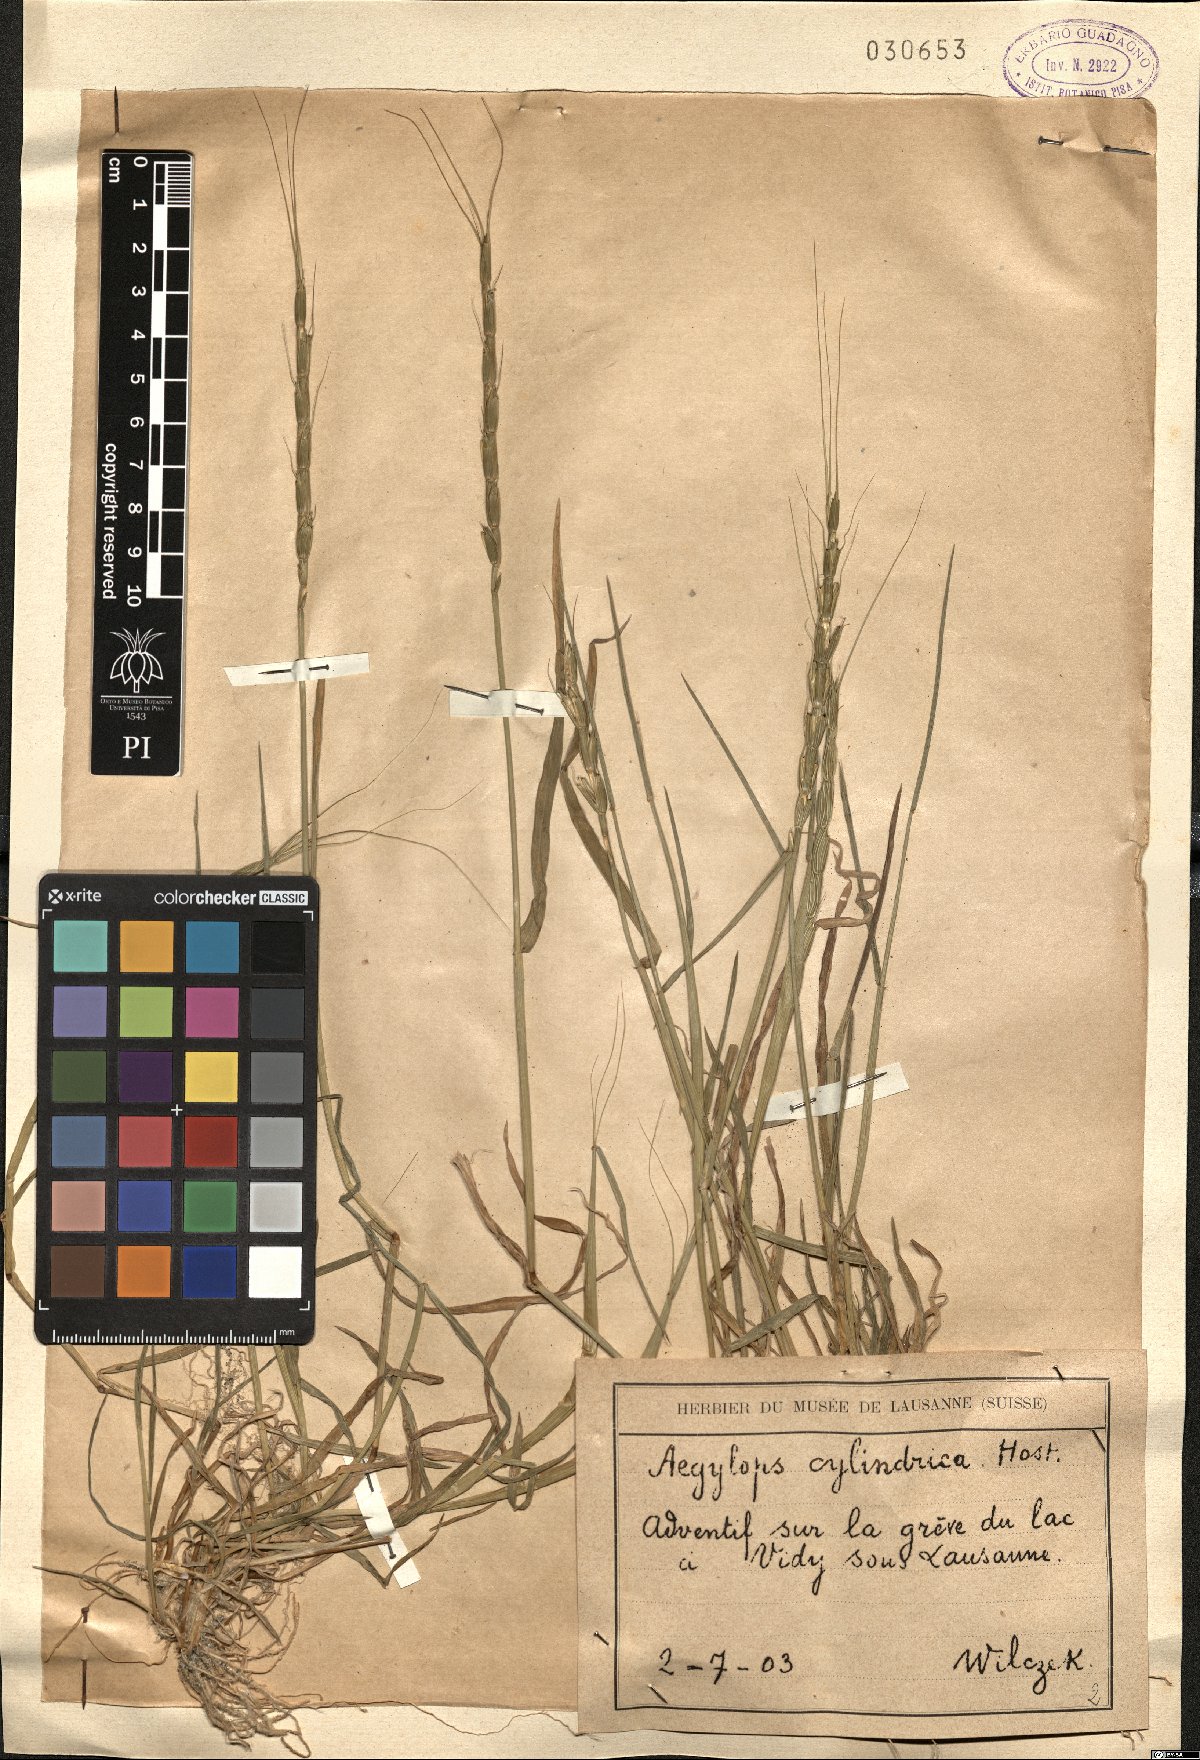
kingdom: Plantae
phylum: Tracheophyta
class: Liliopsida
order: Poales
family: Poaceae
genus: Aegilops
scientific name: Aegilops cylindrica
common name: Jointed goatgrass
